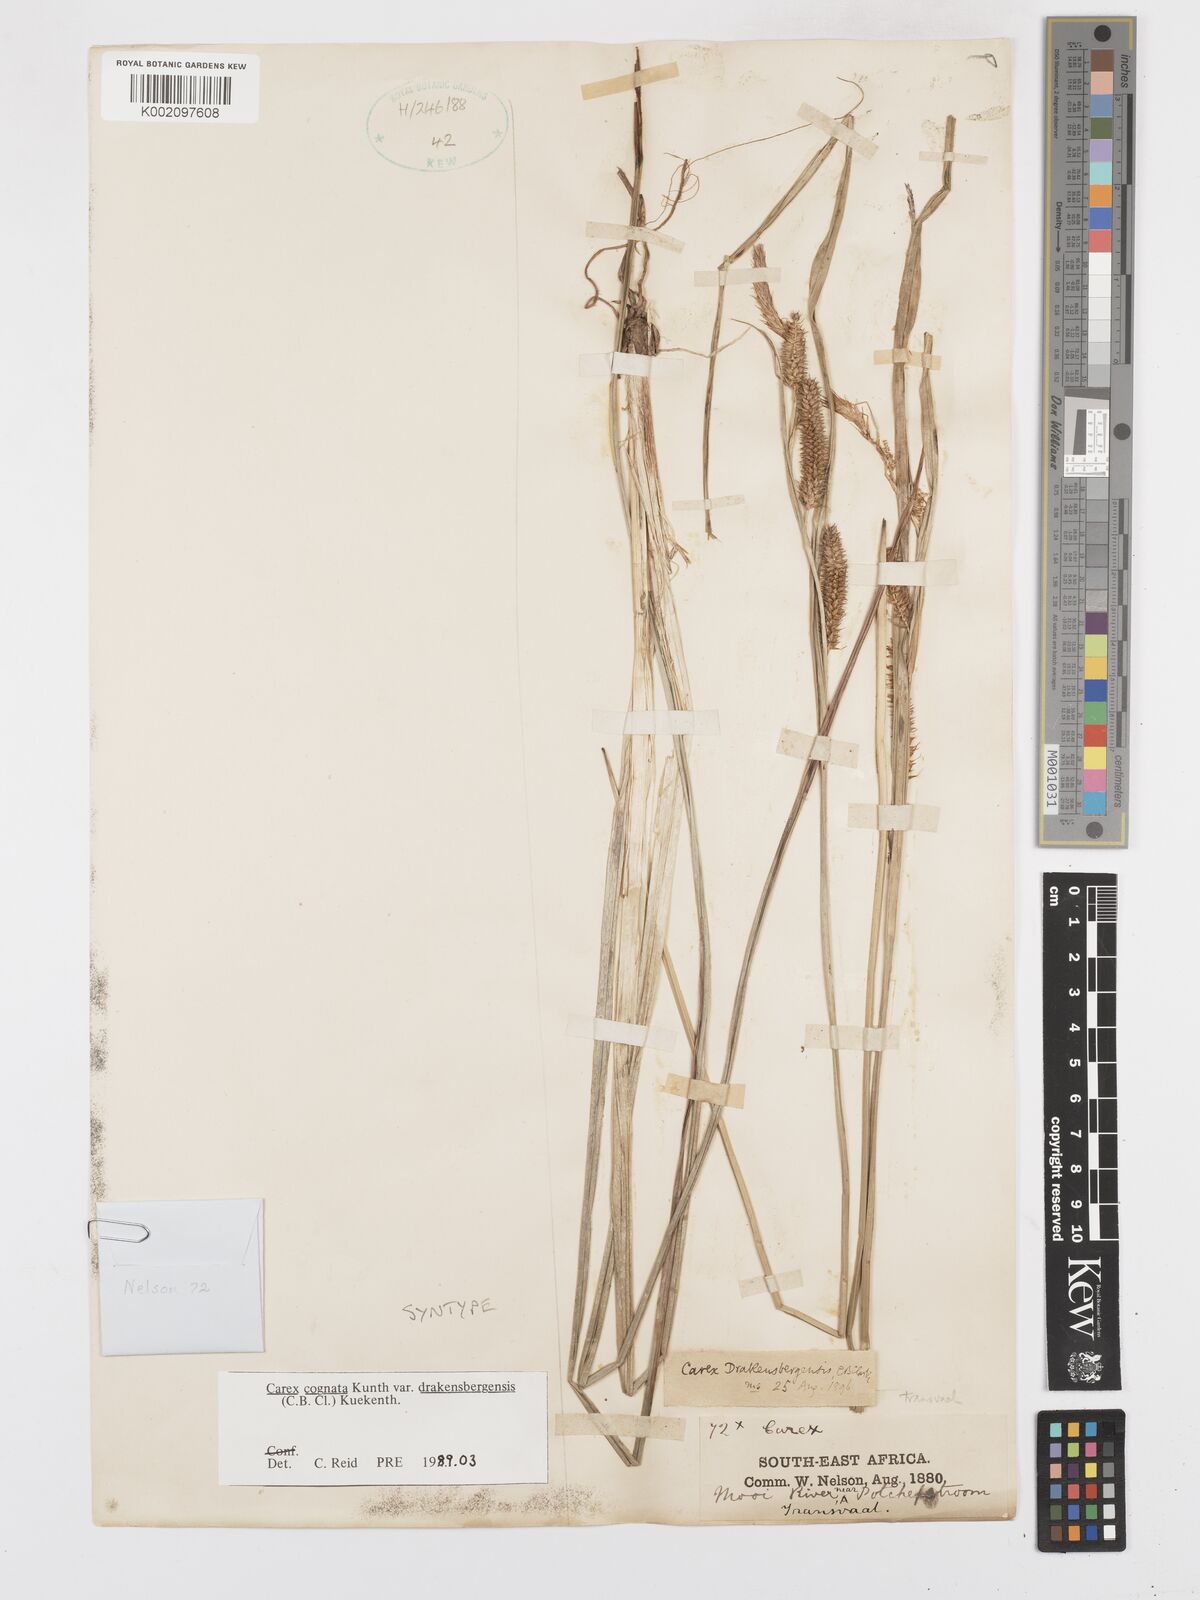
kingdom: Plantae
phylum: Tracheophyta
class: Liliopsida
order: Poales
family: Cyperaceae
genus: Carex
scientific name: Carex cognata
